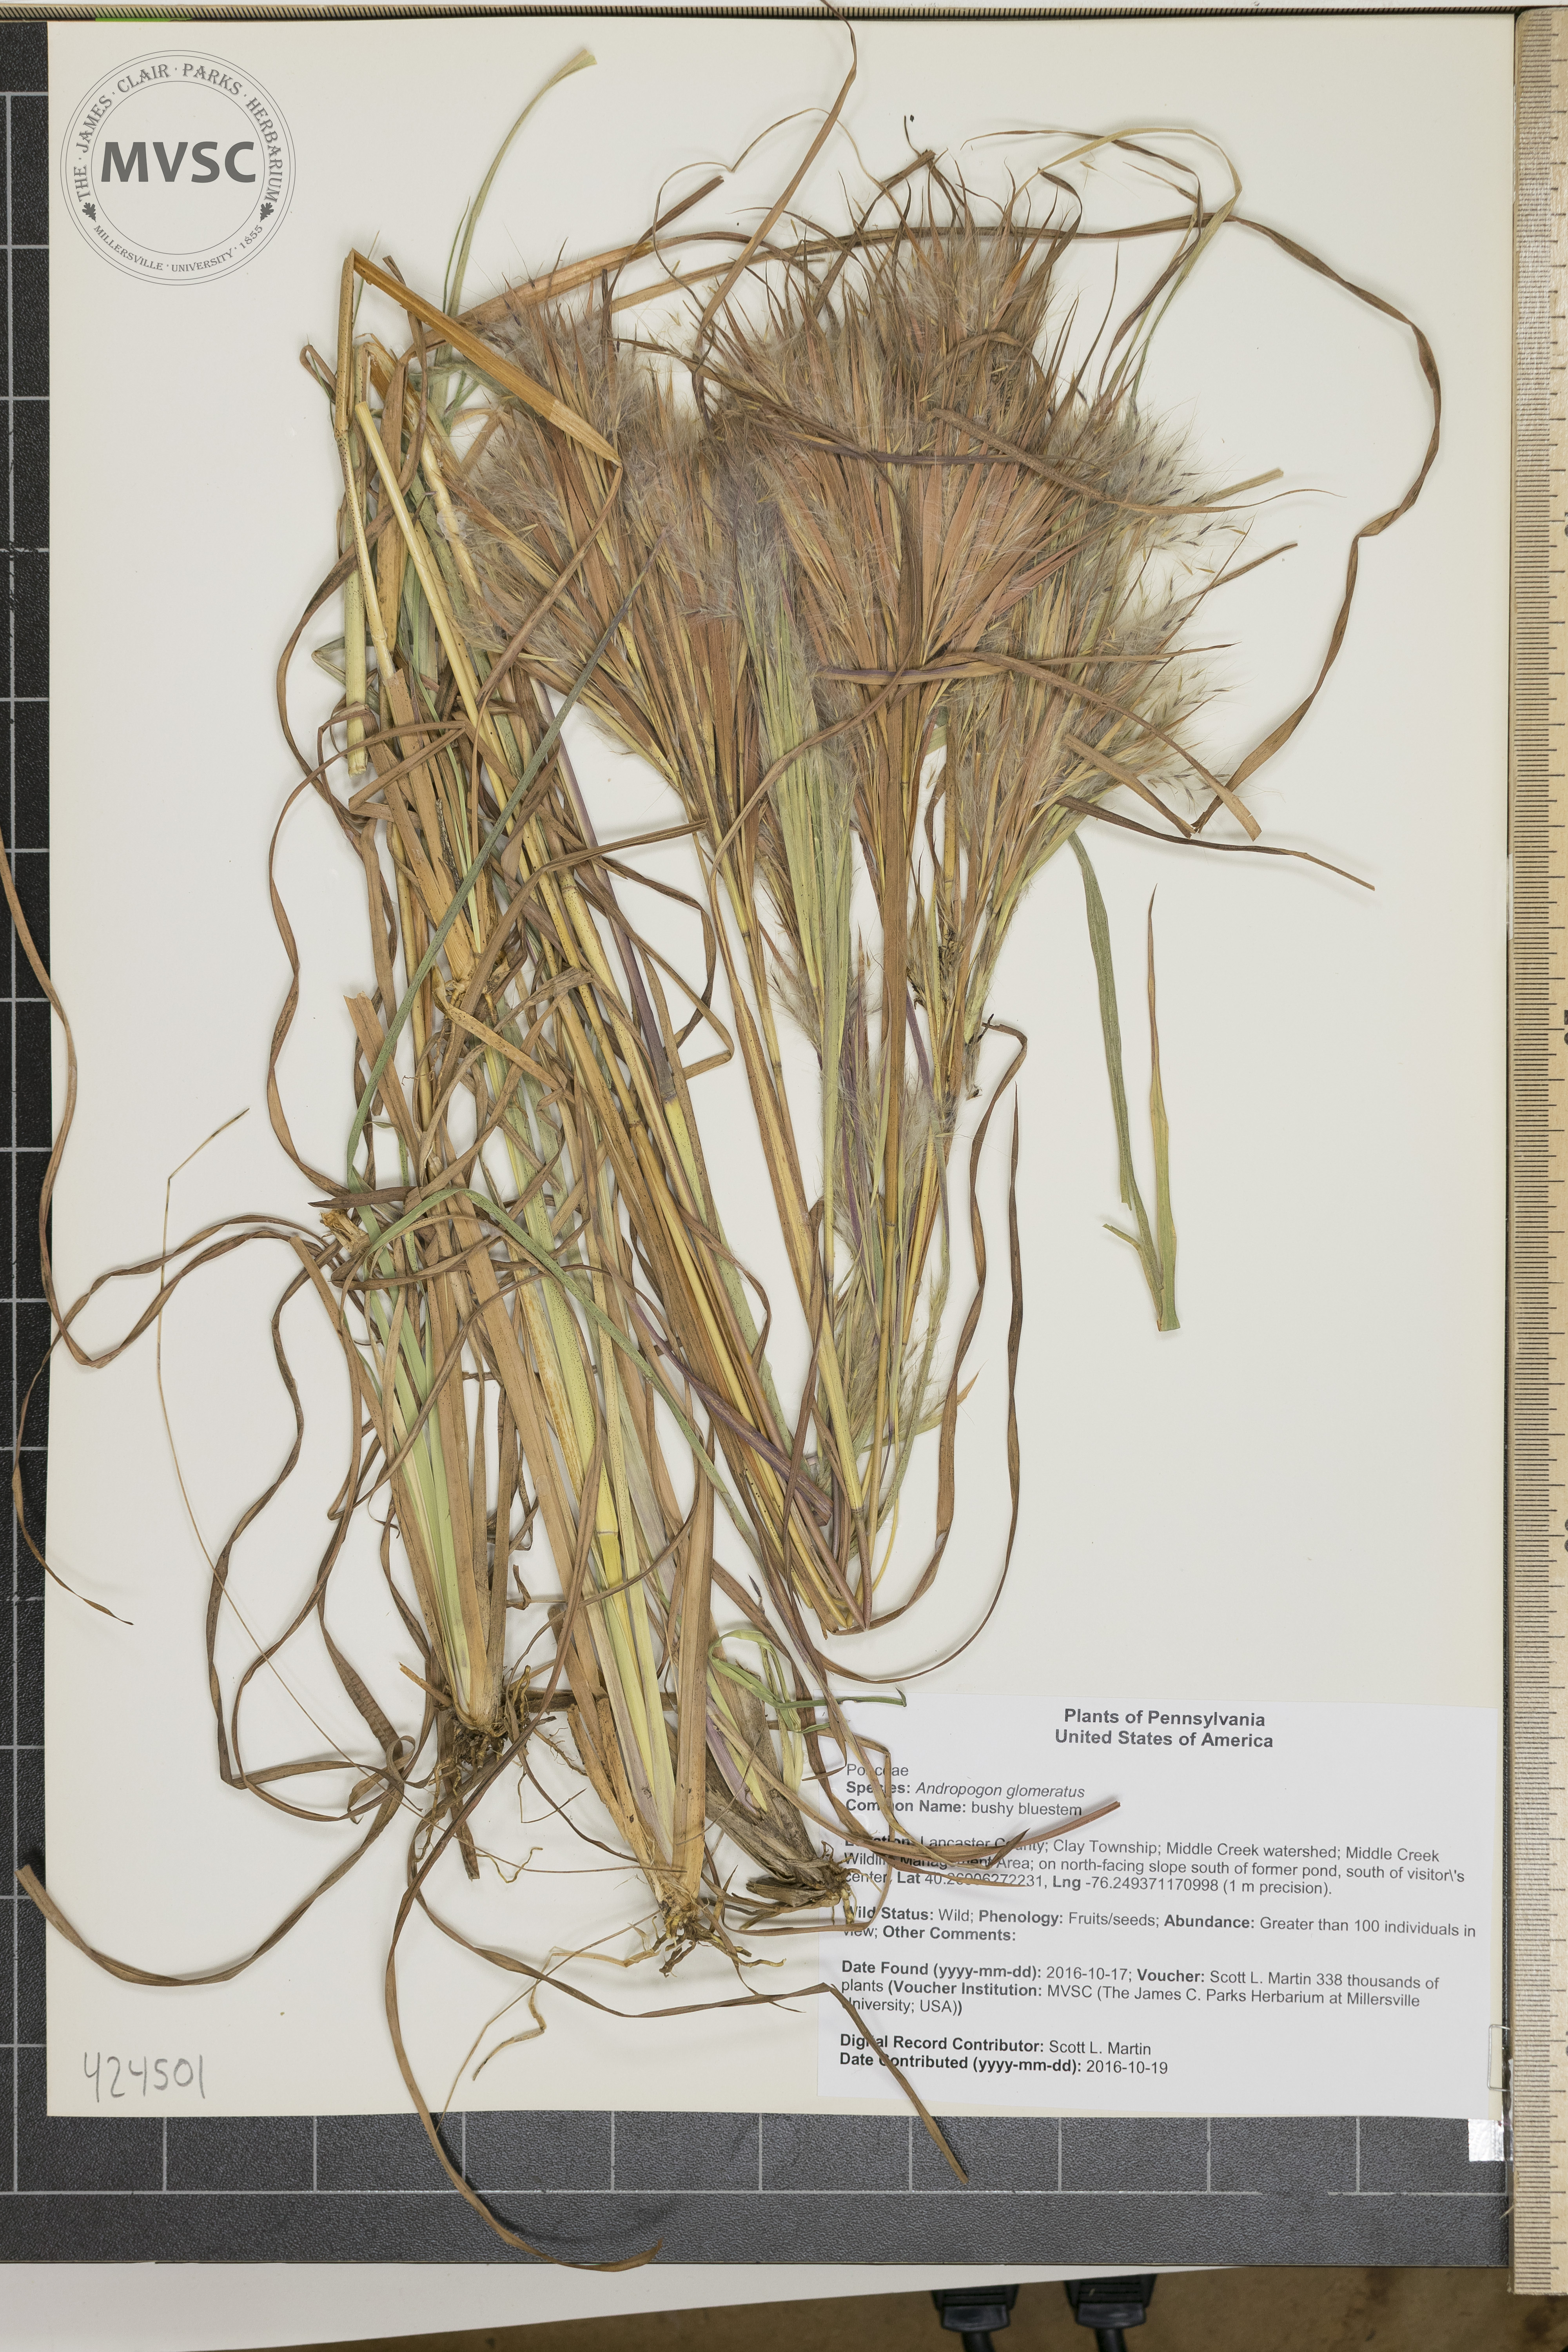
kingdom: Plantae
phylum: Tracheophyta
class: Liliopsida
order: Poales
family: Poaceae
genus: Andropogon
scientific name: Andropogon glomeratus
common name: bushy bluestem
